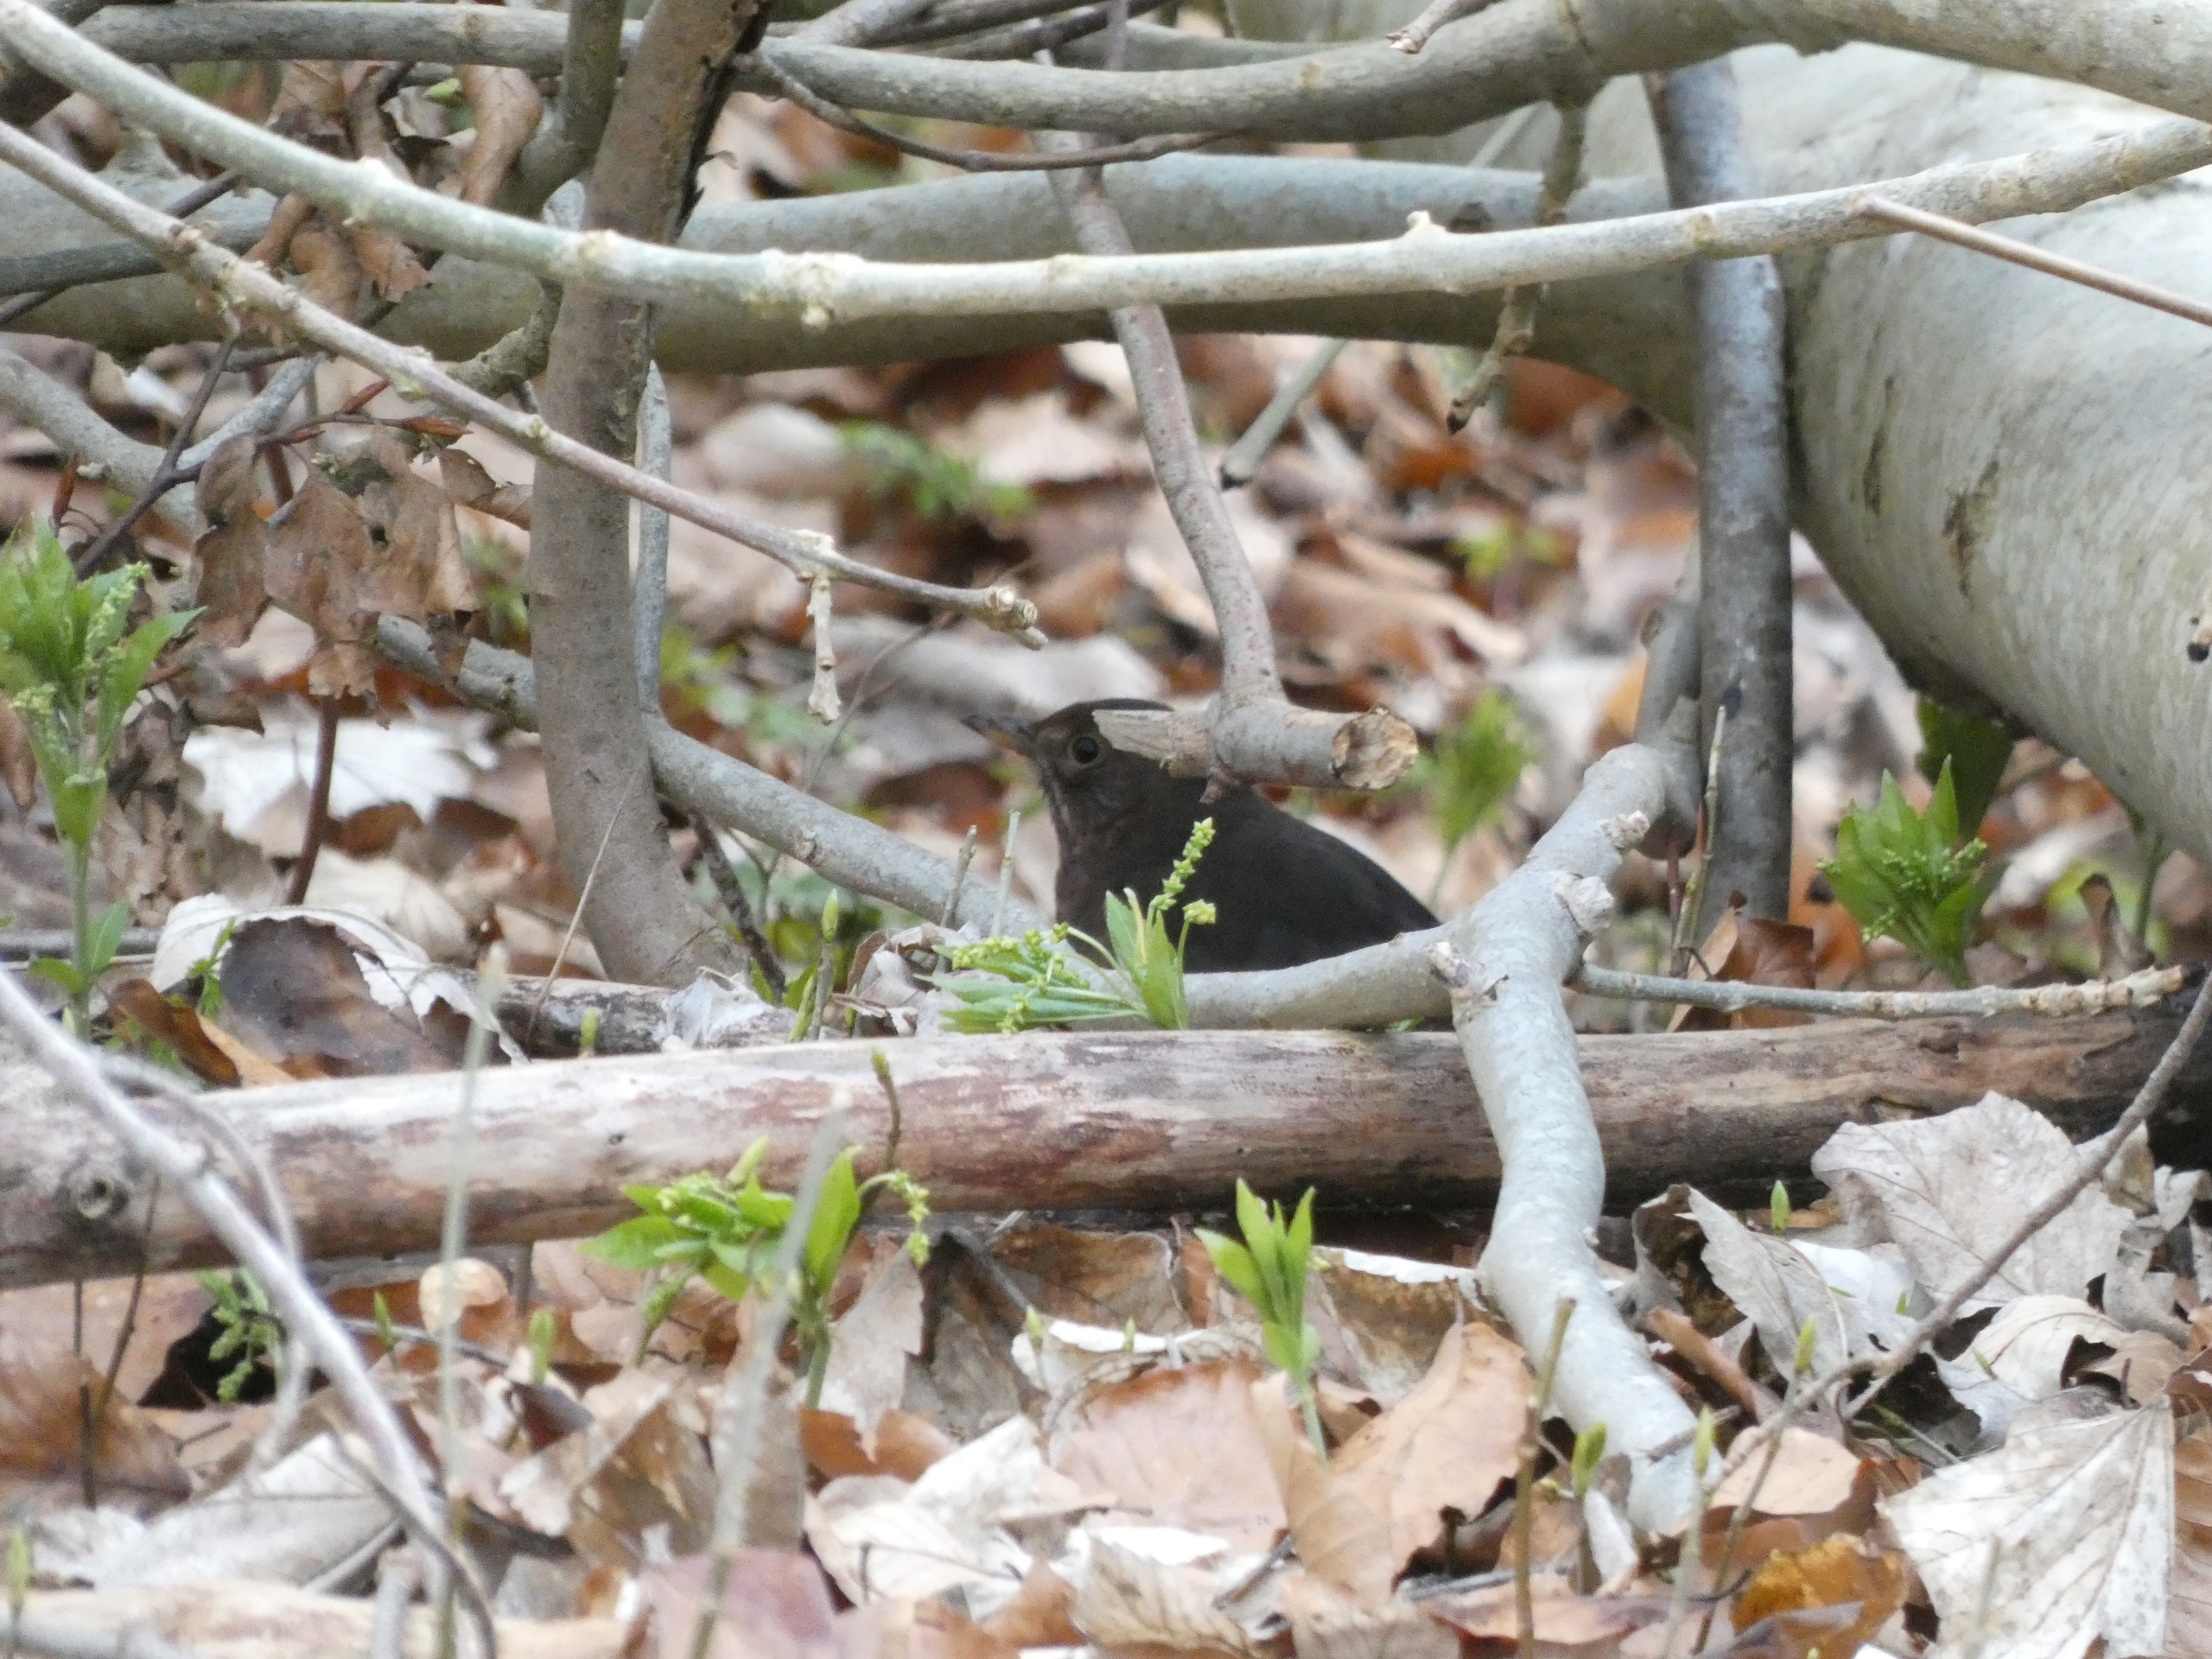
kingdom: Animalia
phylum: Chordata
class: Aves
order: Passeriformes
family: Turdidae
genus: Turdus
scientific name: Turdus merula
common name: Solsort
